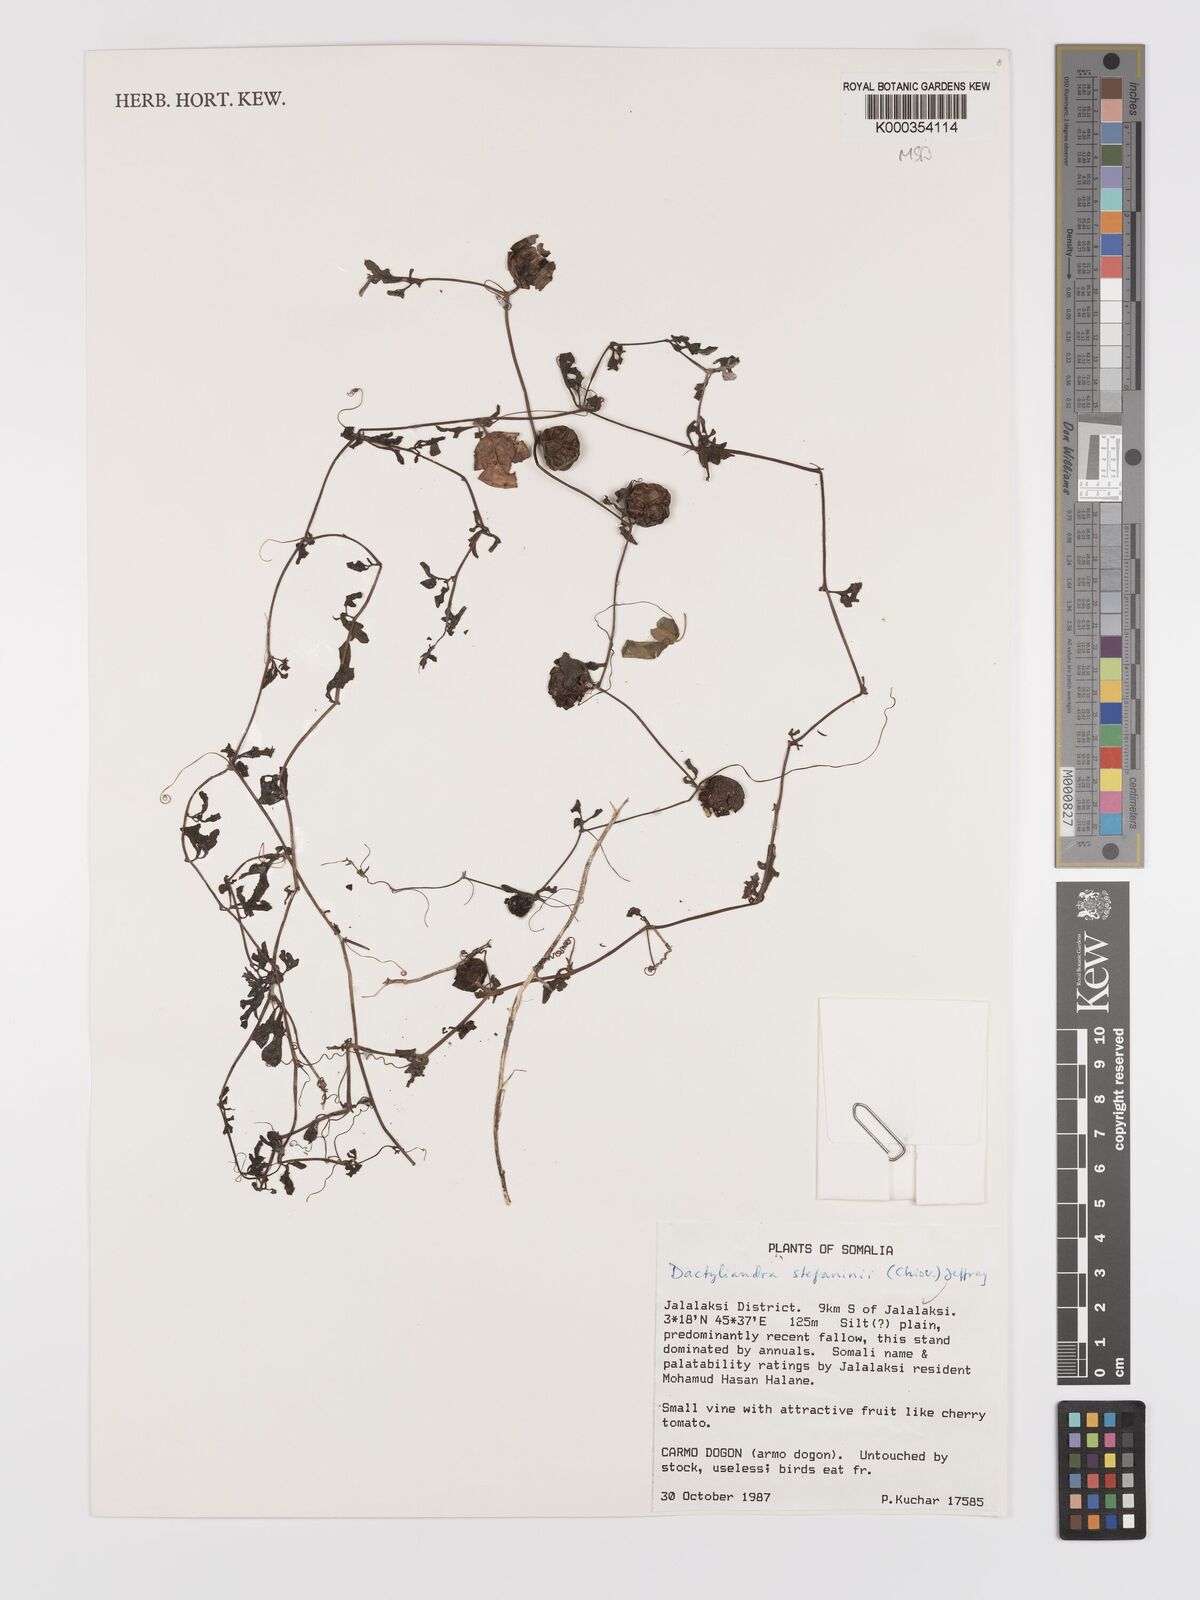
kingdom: Plantae
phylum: Tracheophyta
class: Magnoliopsida
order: Cucurbitales
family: Cucurbitaceae
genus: Dactyliandra
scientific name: Dactyliandra stefaninii
